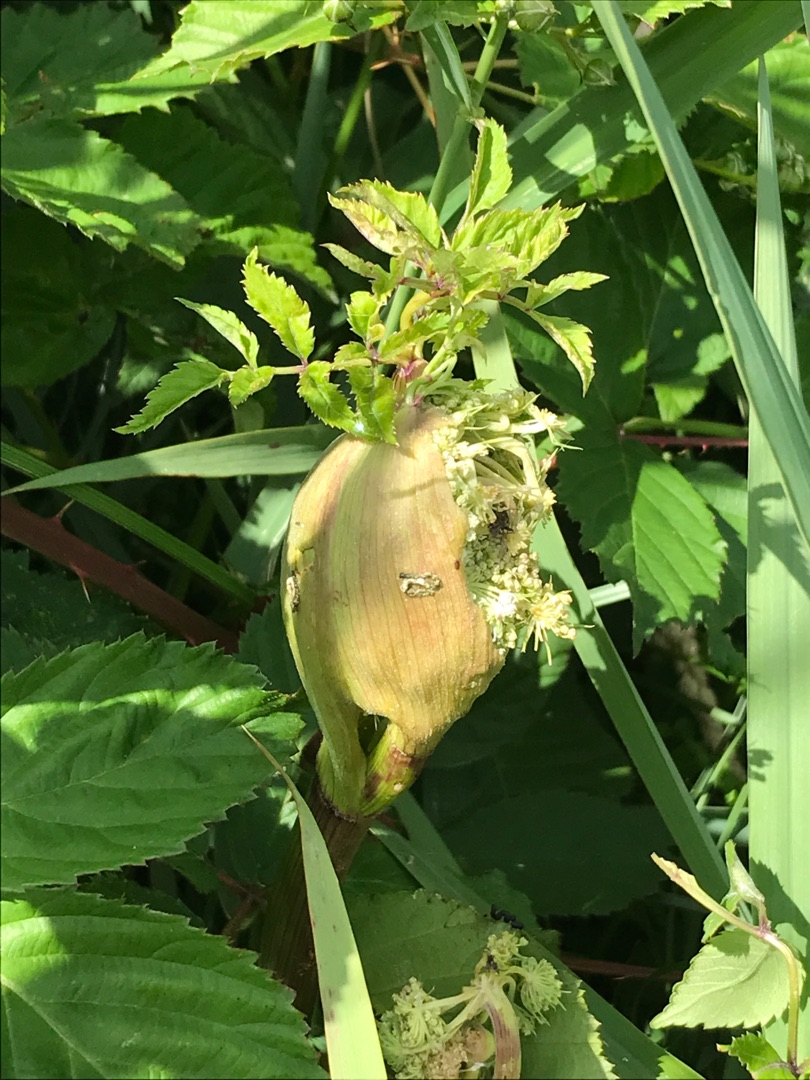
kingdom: Plantae
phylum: Tracheophyta
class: Magnoliopsida
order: Apiales
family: Apiaceae
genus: Angelica
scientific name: Angelica sylvestris
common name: Angelik
